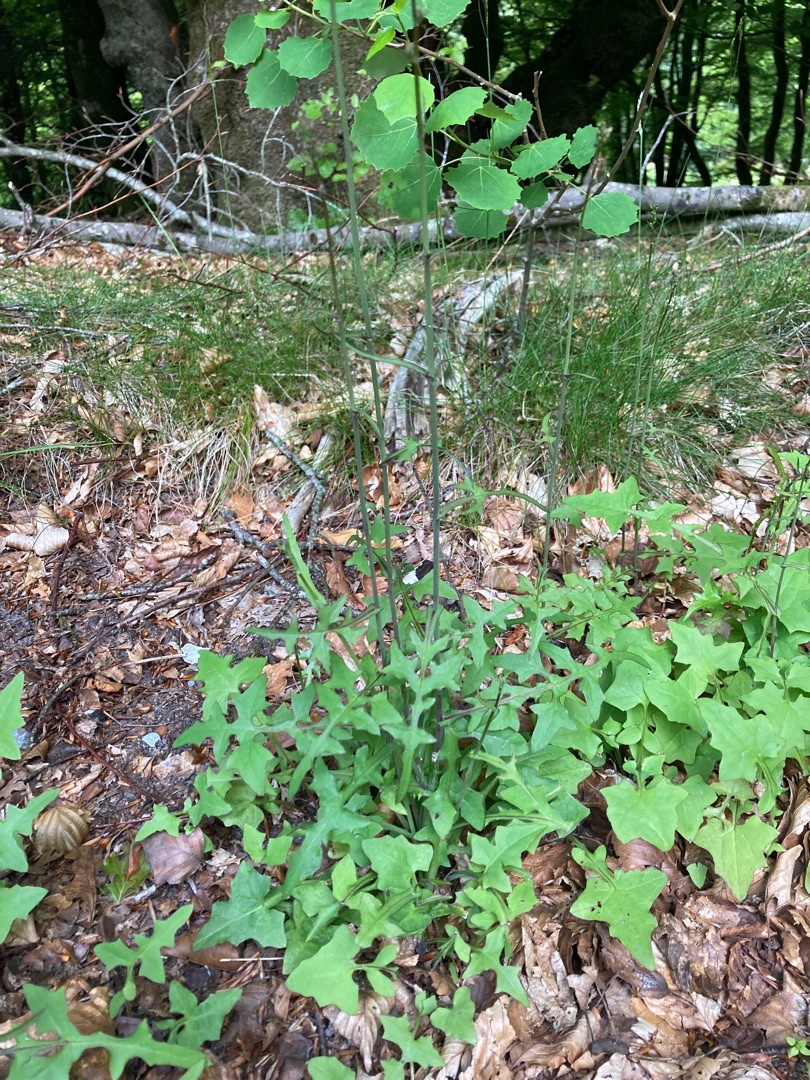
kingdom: Plantae
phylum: Tracheophyta
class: Magnoliopsida
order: Asterales
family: Asteraceae
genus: Mycelis
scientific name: Mycelis muralis
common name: Skov-salat
